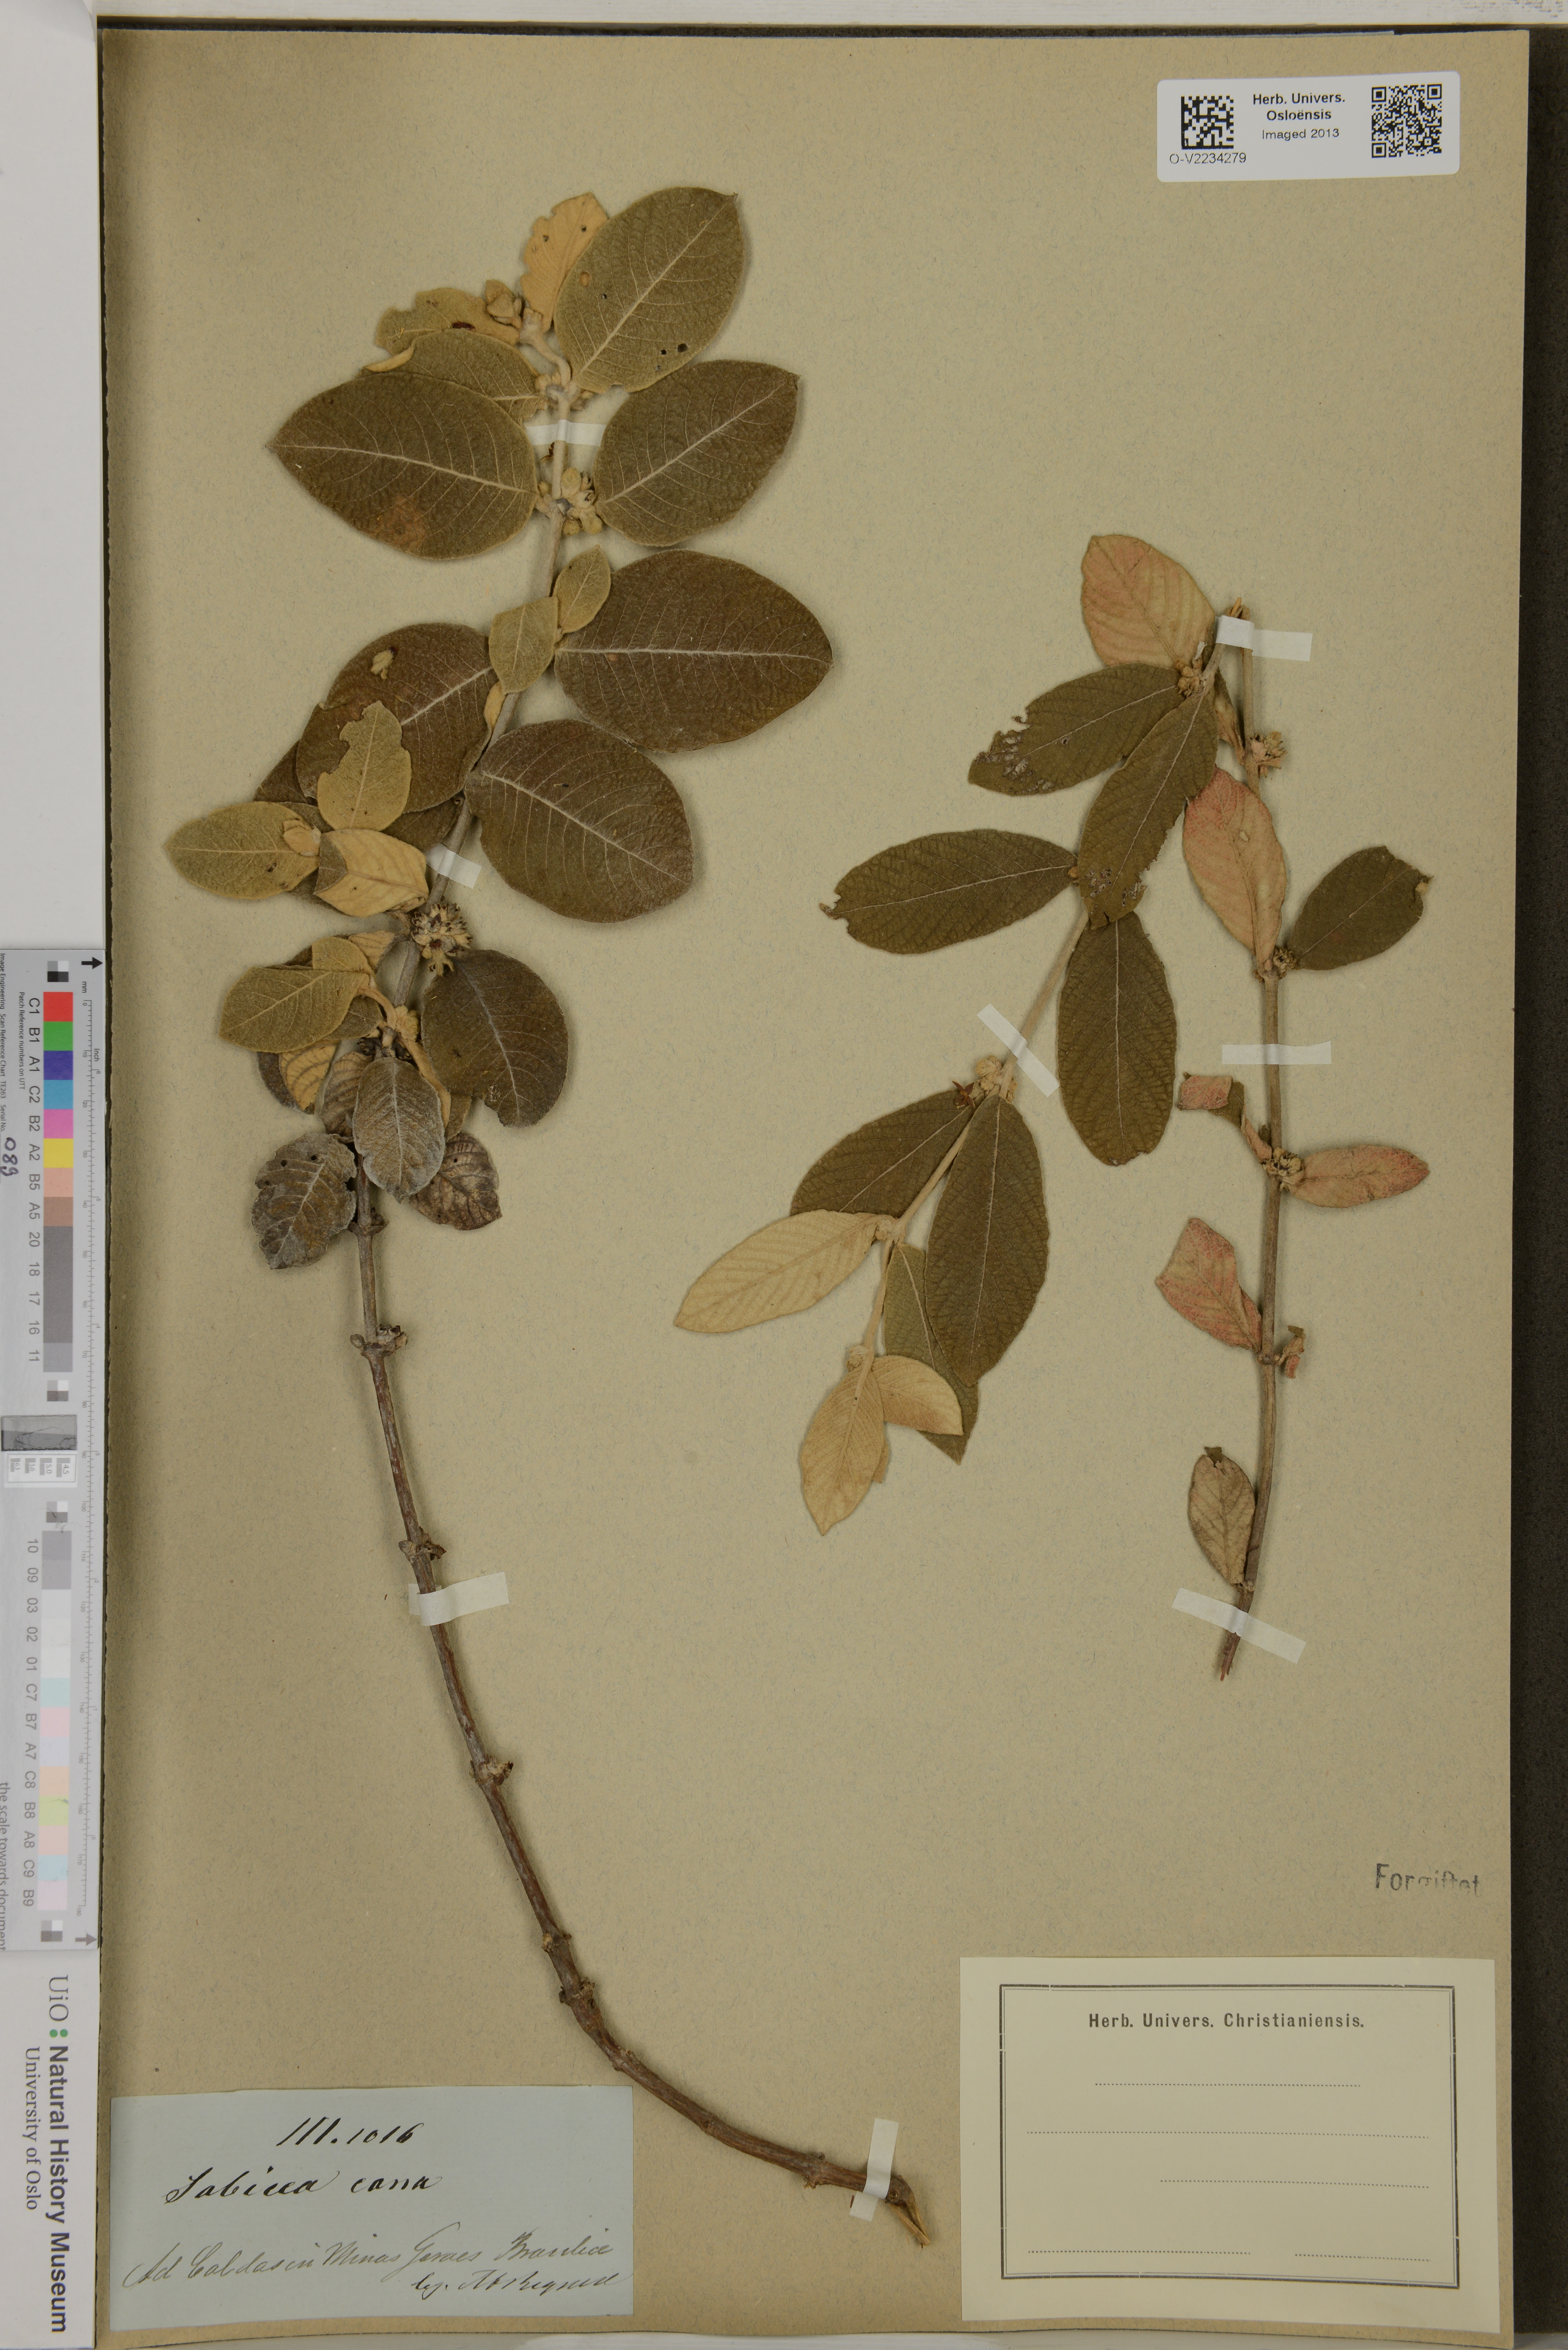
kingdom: Plantae
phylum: Tracheophyta
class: Magnoliopsida
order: Gentianales
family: Rubiaceae
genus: Sabicea
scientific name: Sabicea cana
